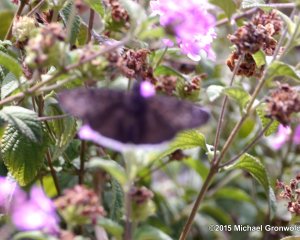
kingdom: Animalia
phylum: Arthropoda
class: Insecta
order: Lepidoptera
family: Hesperiidae
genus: Erynnis
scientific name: Erynnis funeralis
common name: Funereal Duskywing
